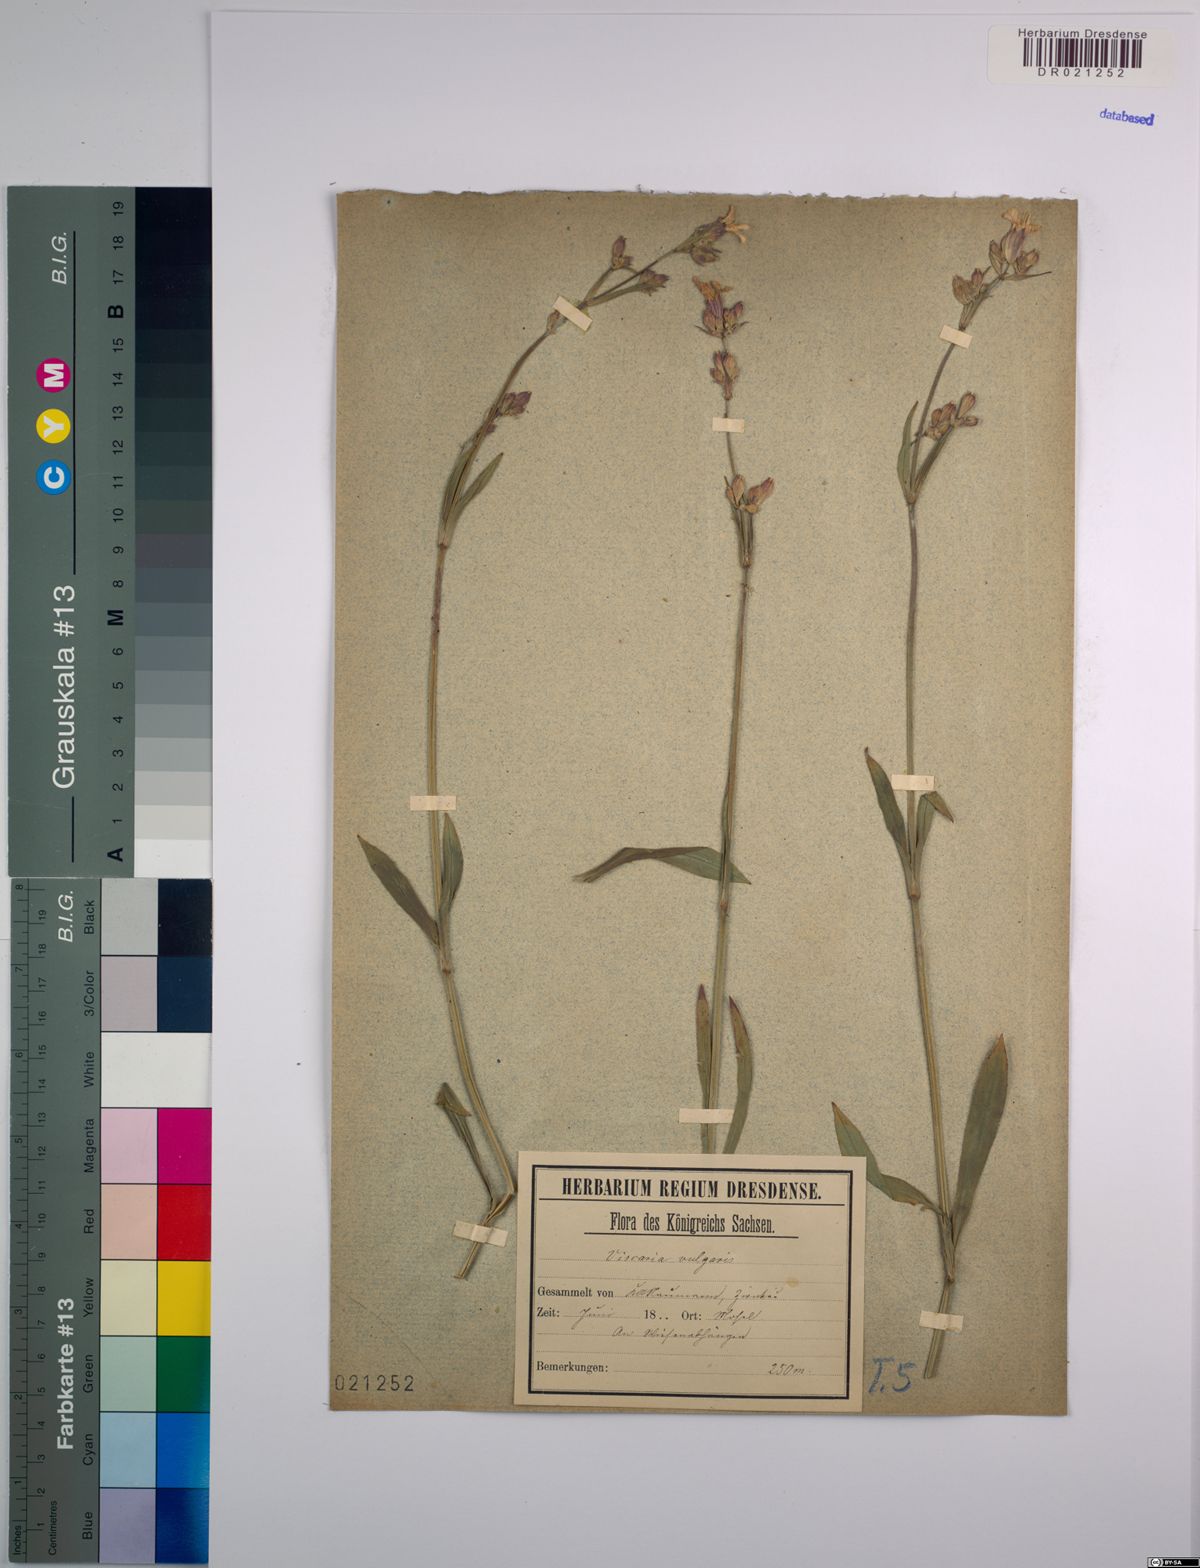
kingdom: Plantae
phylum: Tracheophyta
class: Magnoliopsida
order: Caryophyllales
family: Caryophyllaceae
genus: Viscaria
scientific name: Viscaria vulgaris
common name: Clammy campion
